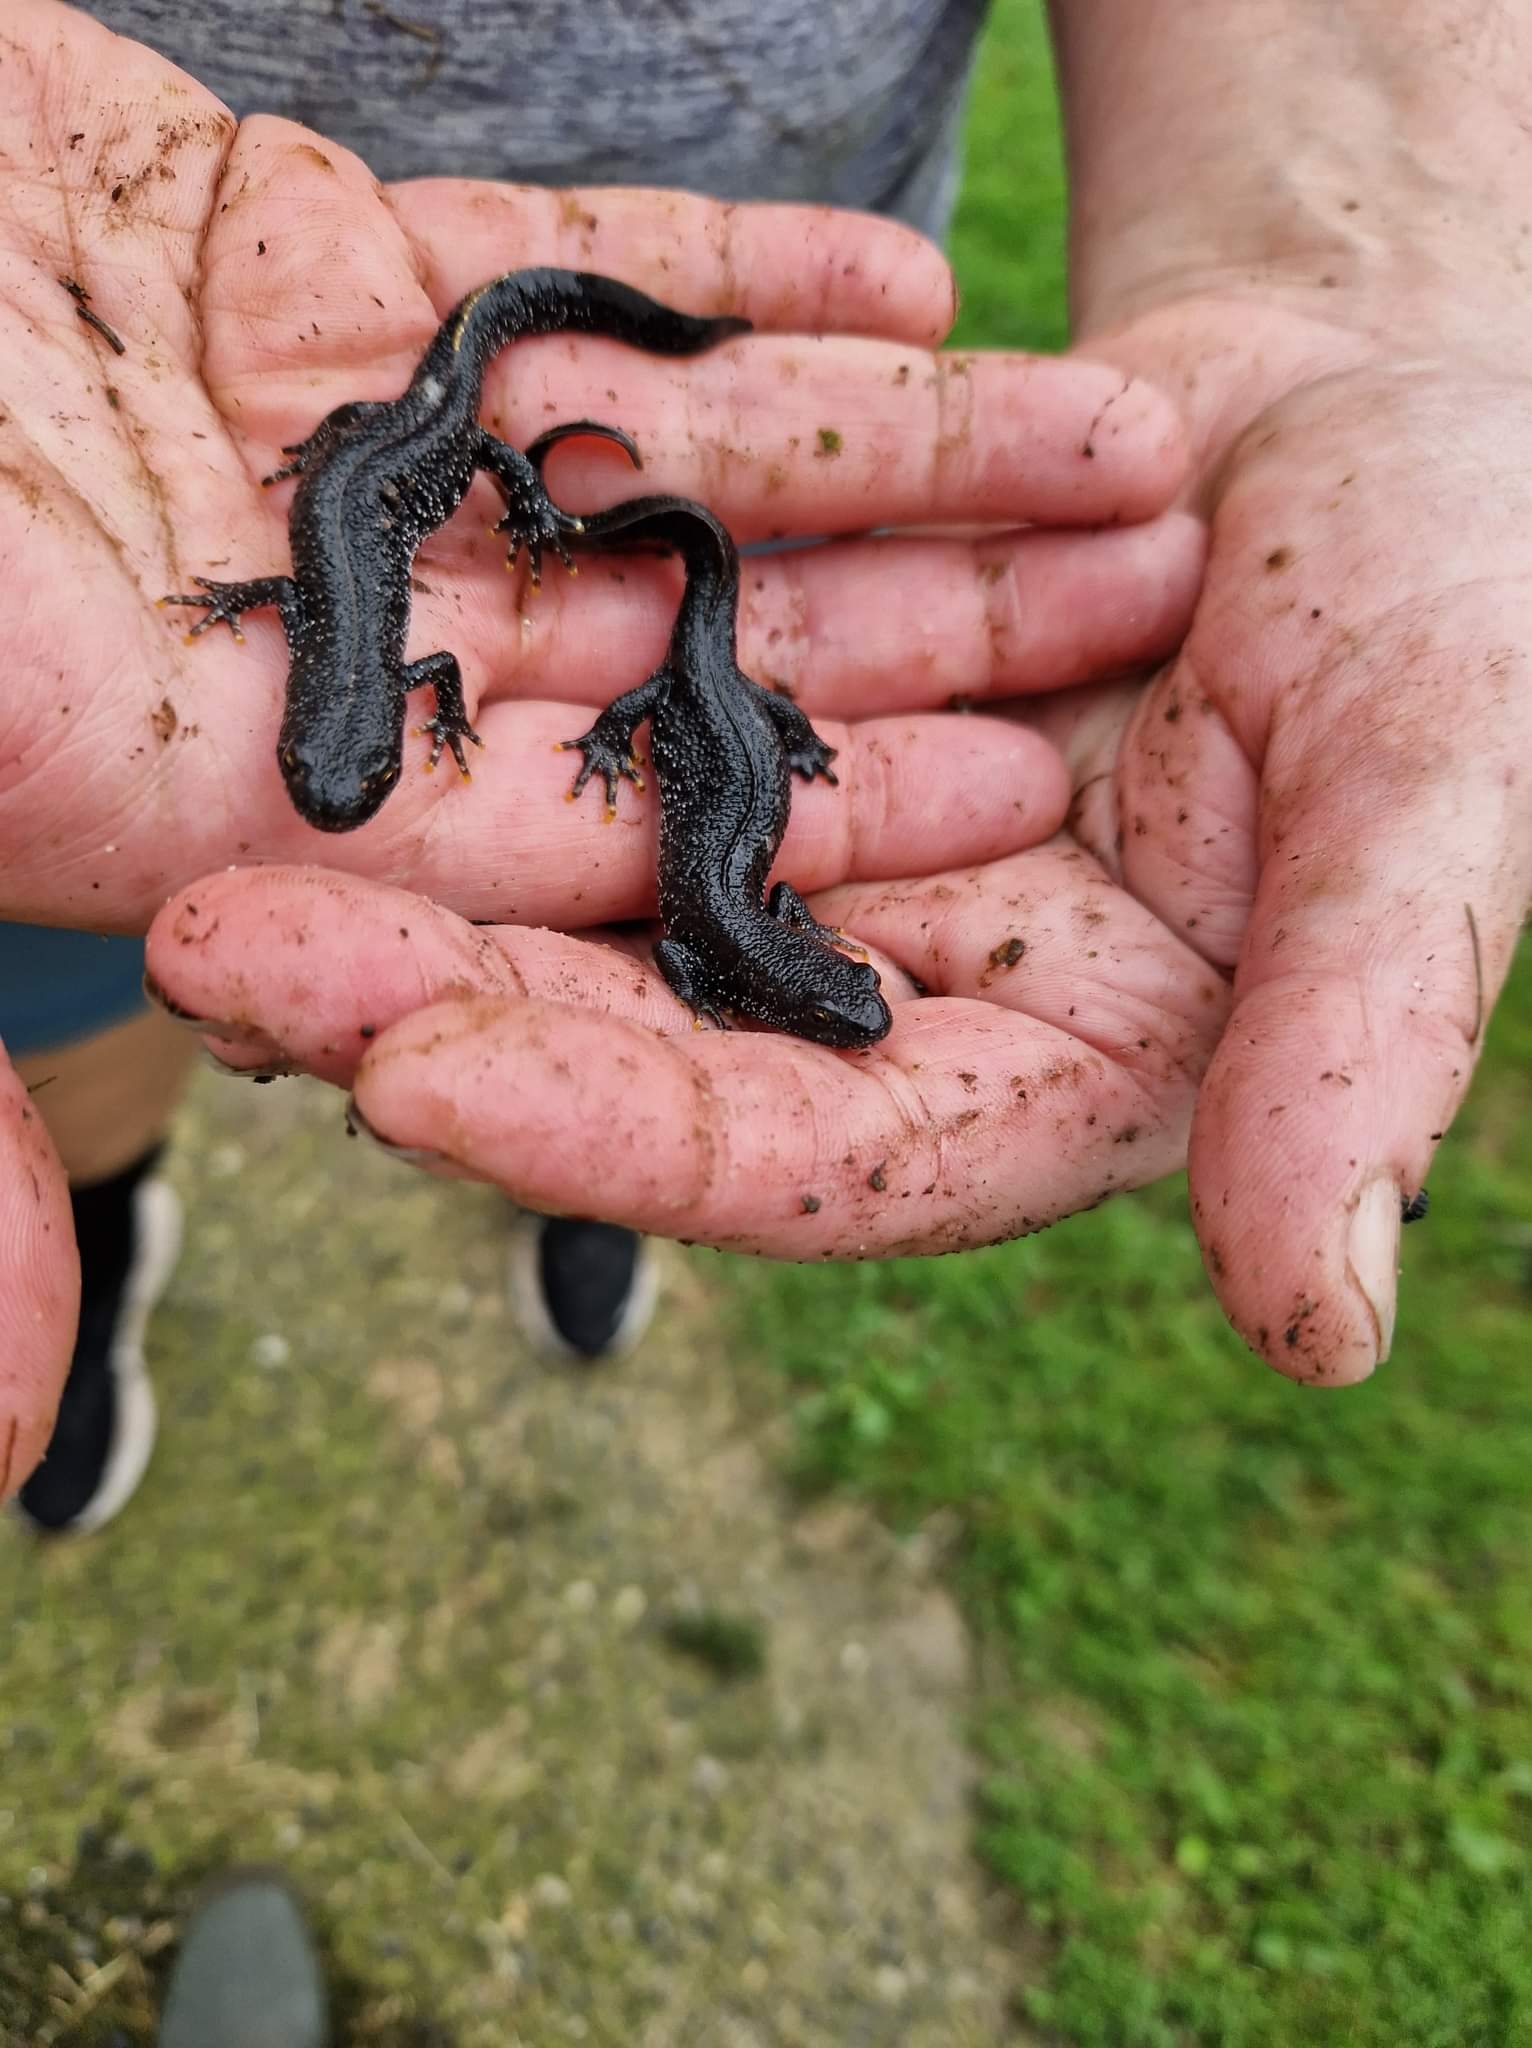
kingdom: Animalia
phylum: Chordata
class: Amphibia
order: Caudata
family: Salamandridae
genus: Triturus
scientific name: Triturus cristatus
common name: Stor vandsalamander
